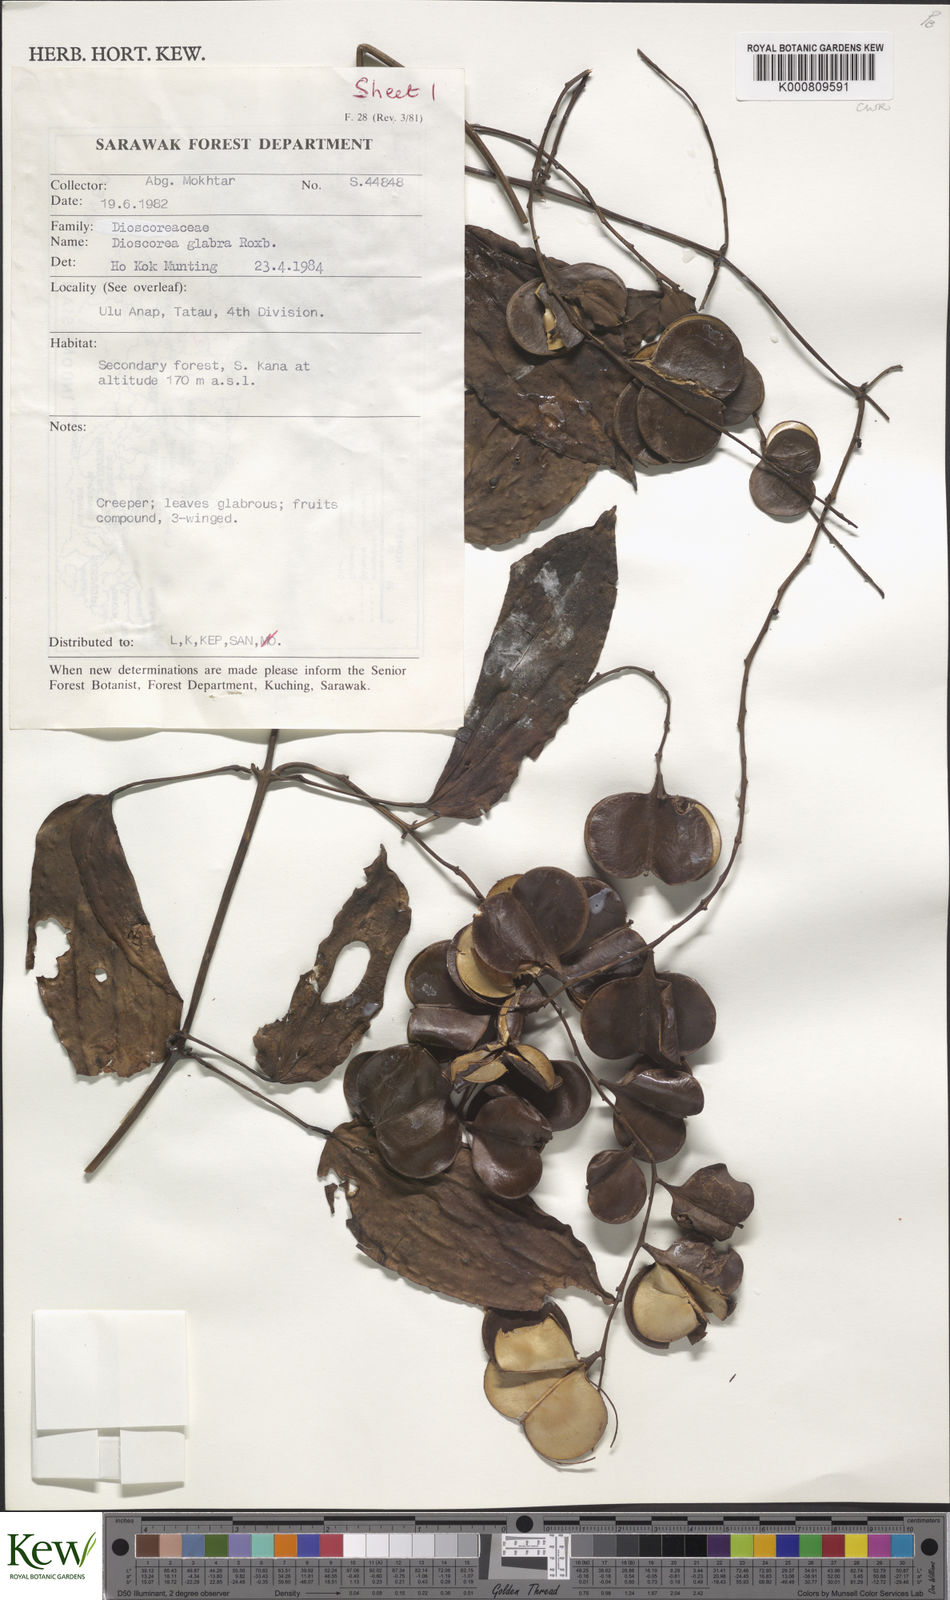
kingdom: Plantae
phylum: Tracheophyta
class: Liliopsida
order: Dioscoreales
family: Dioscoreaceae
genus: Dioscorea
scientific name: Dioscorea glabra
